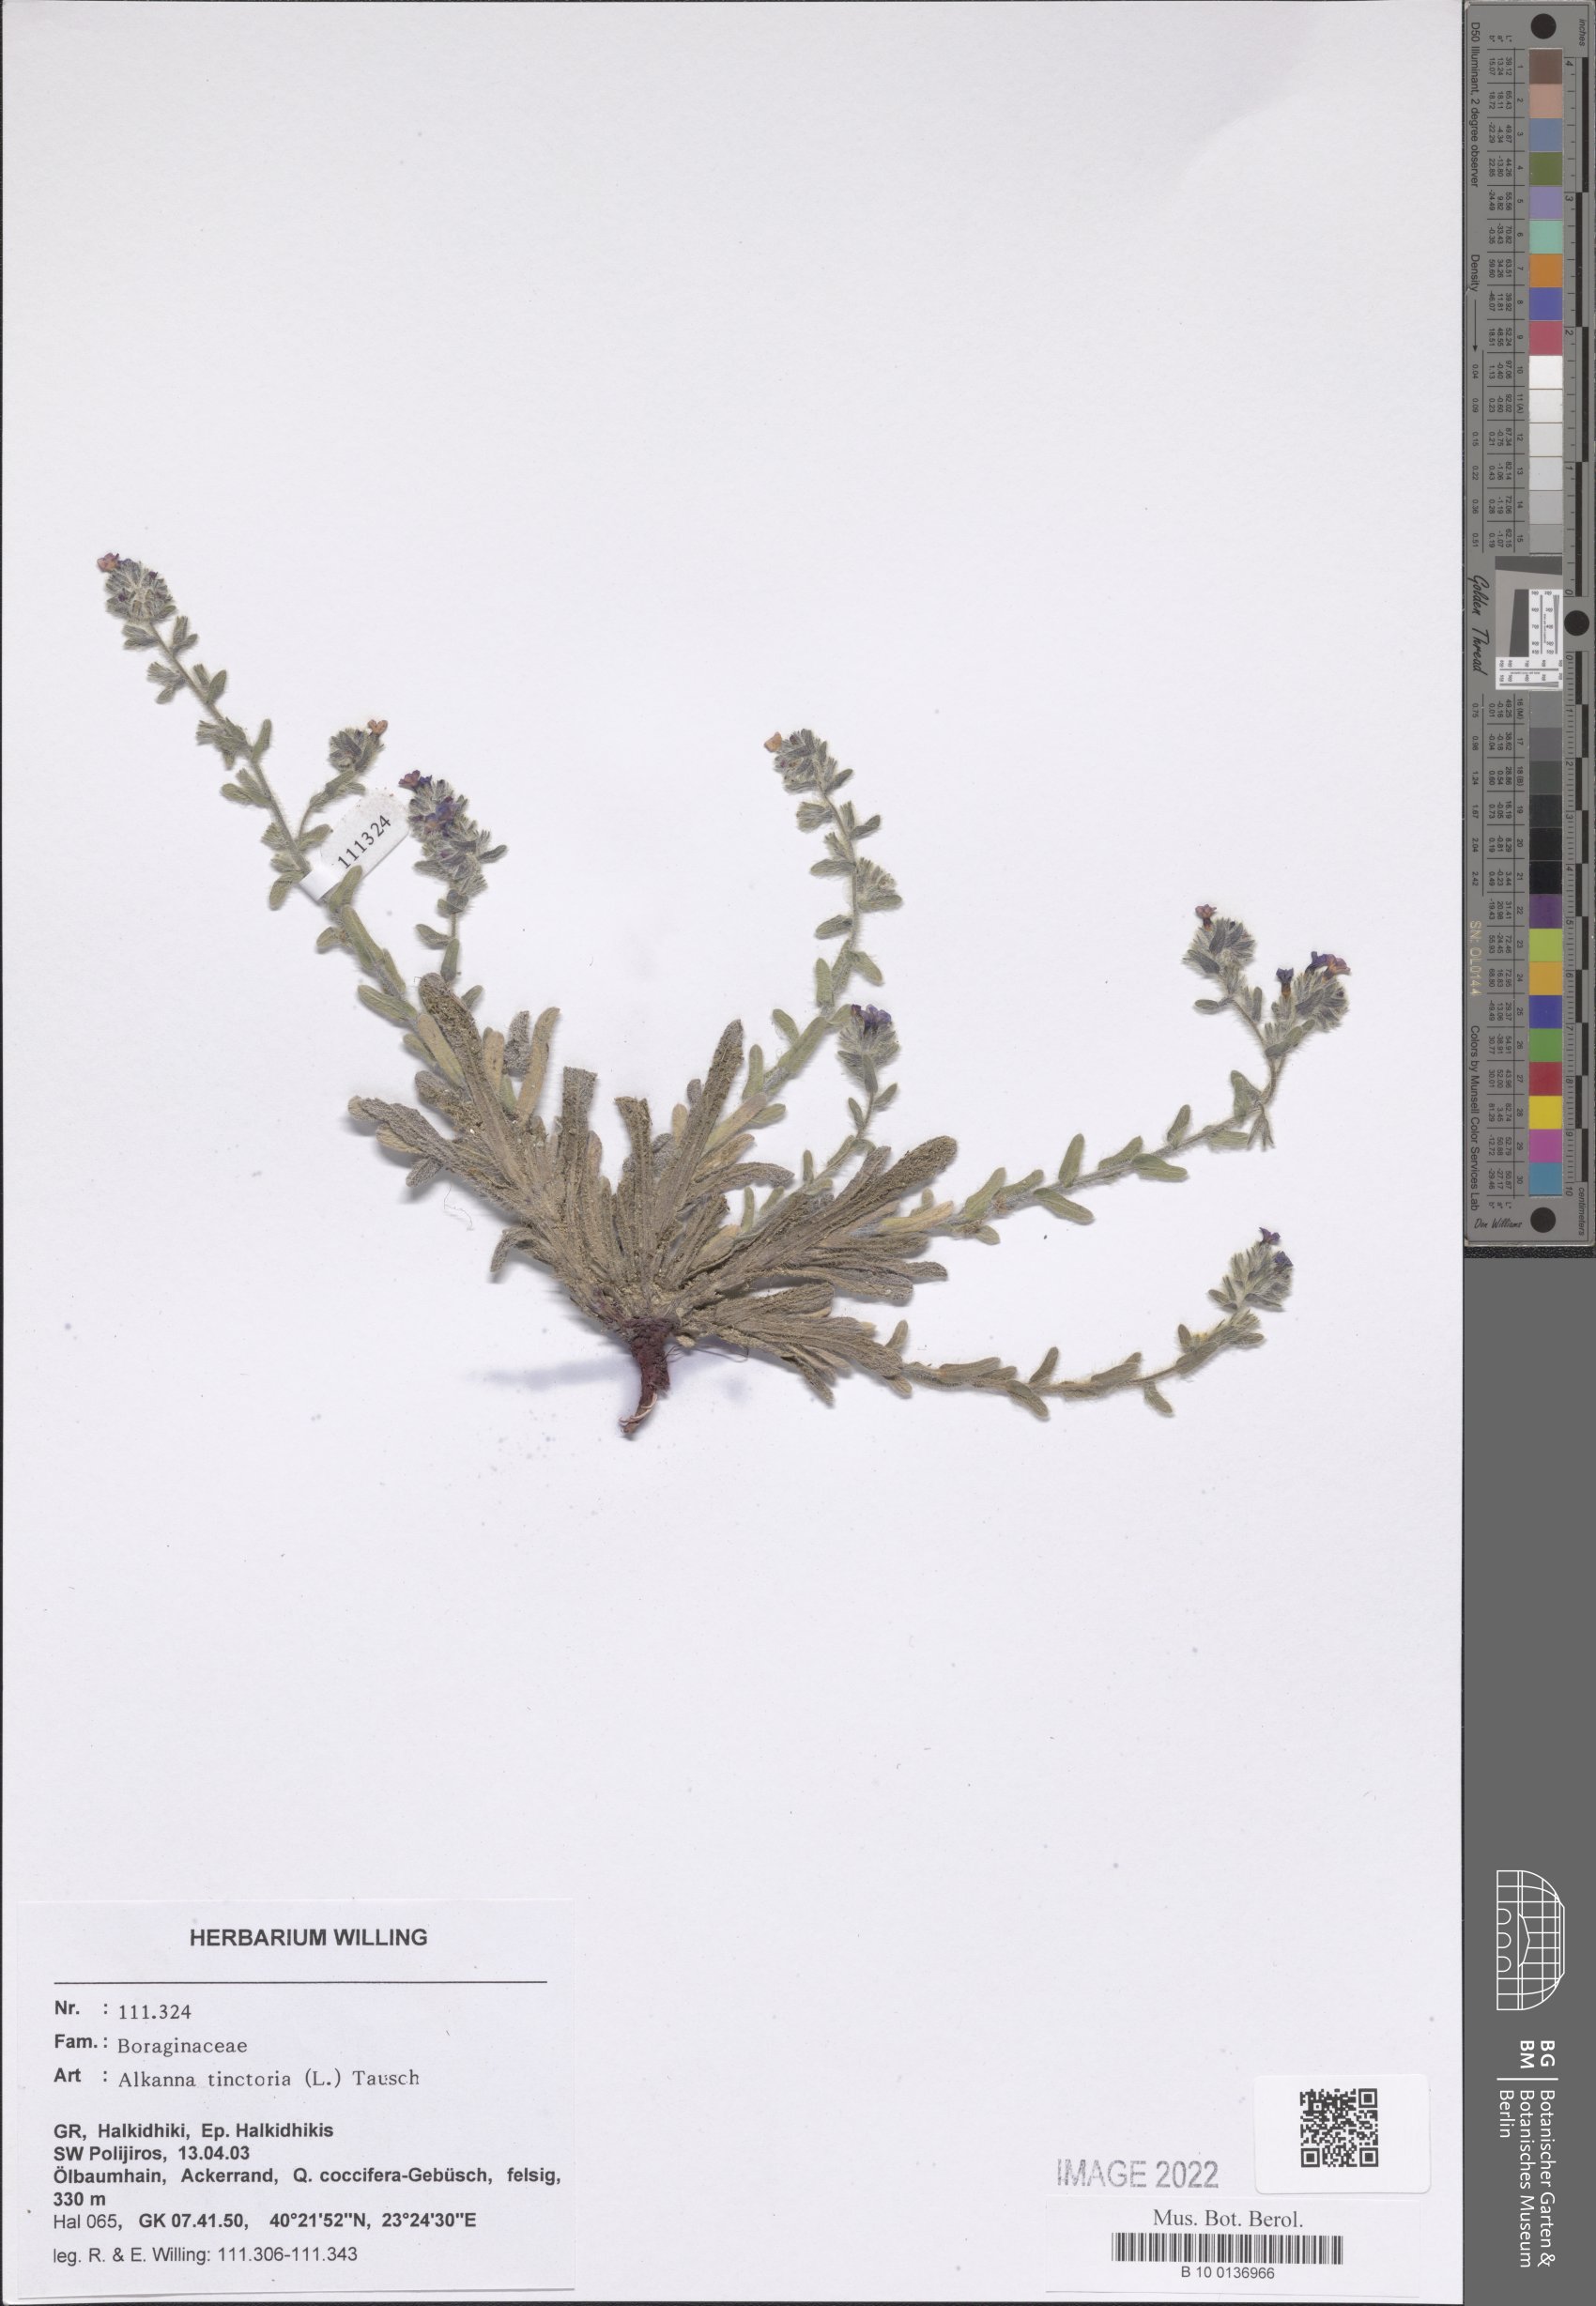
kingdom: Plantae
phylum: Tracheophyta
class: Magnoliopsida
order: Boraginales
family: Boraginaceae
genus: Alkanna
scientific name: Alkanna tinctoria
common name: Dyer's-alkanet
